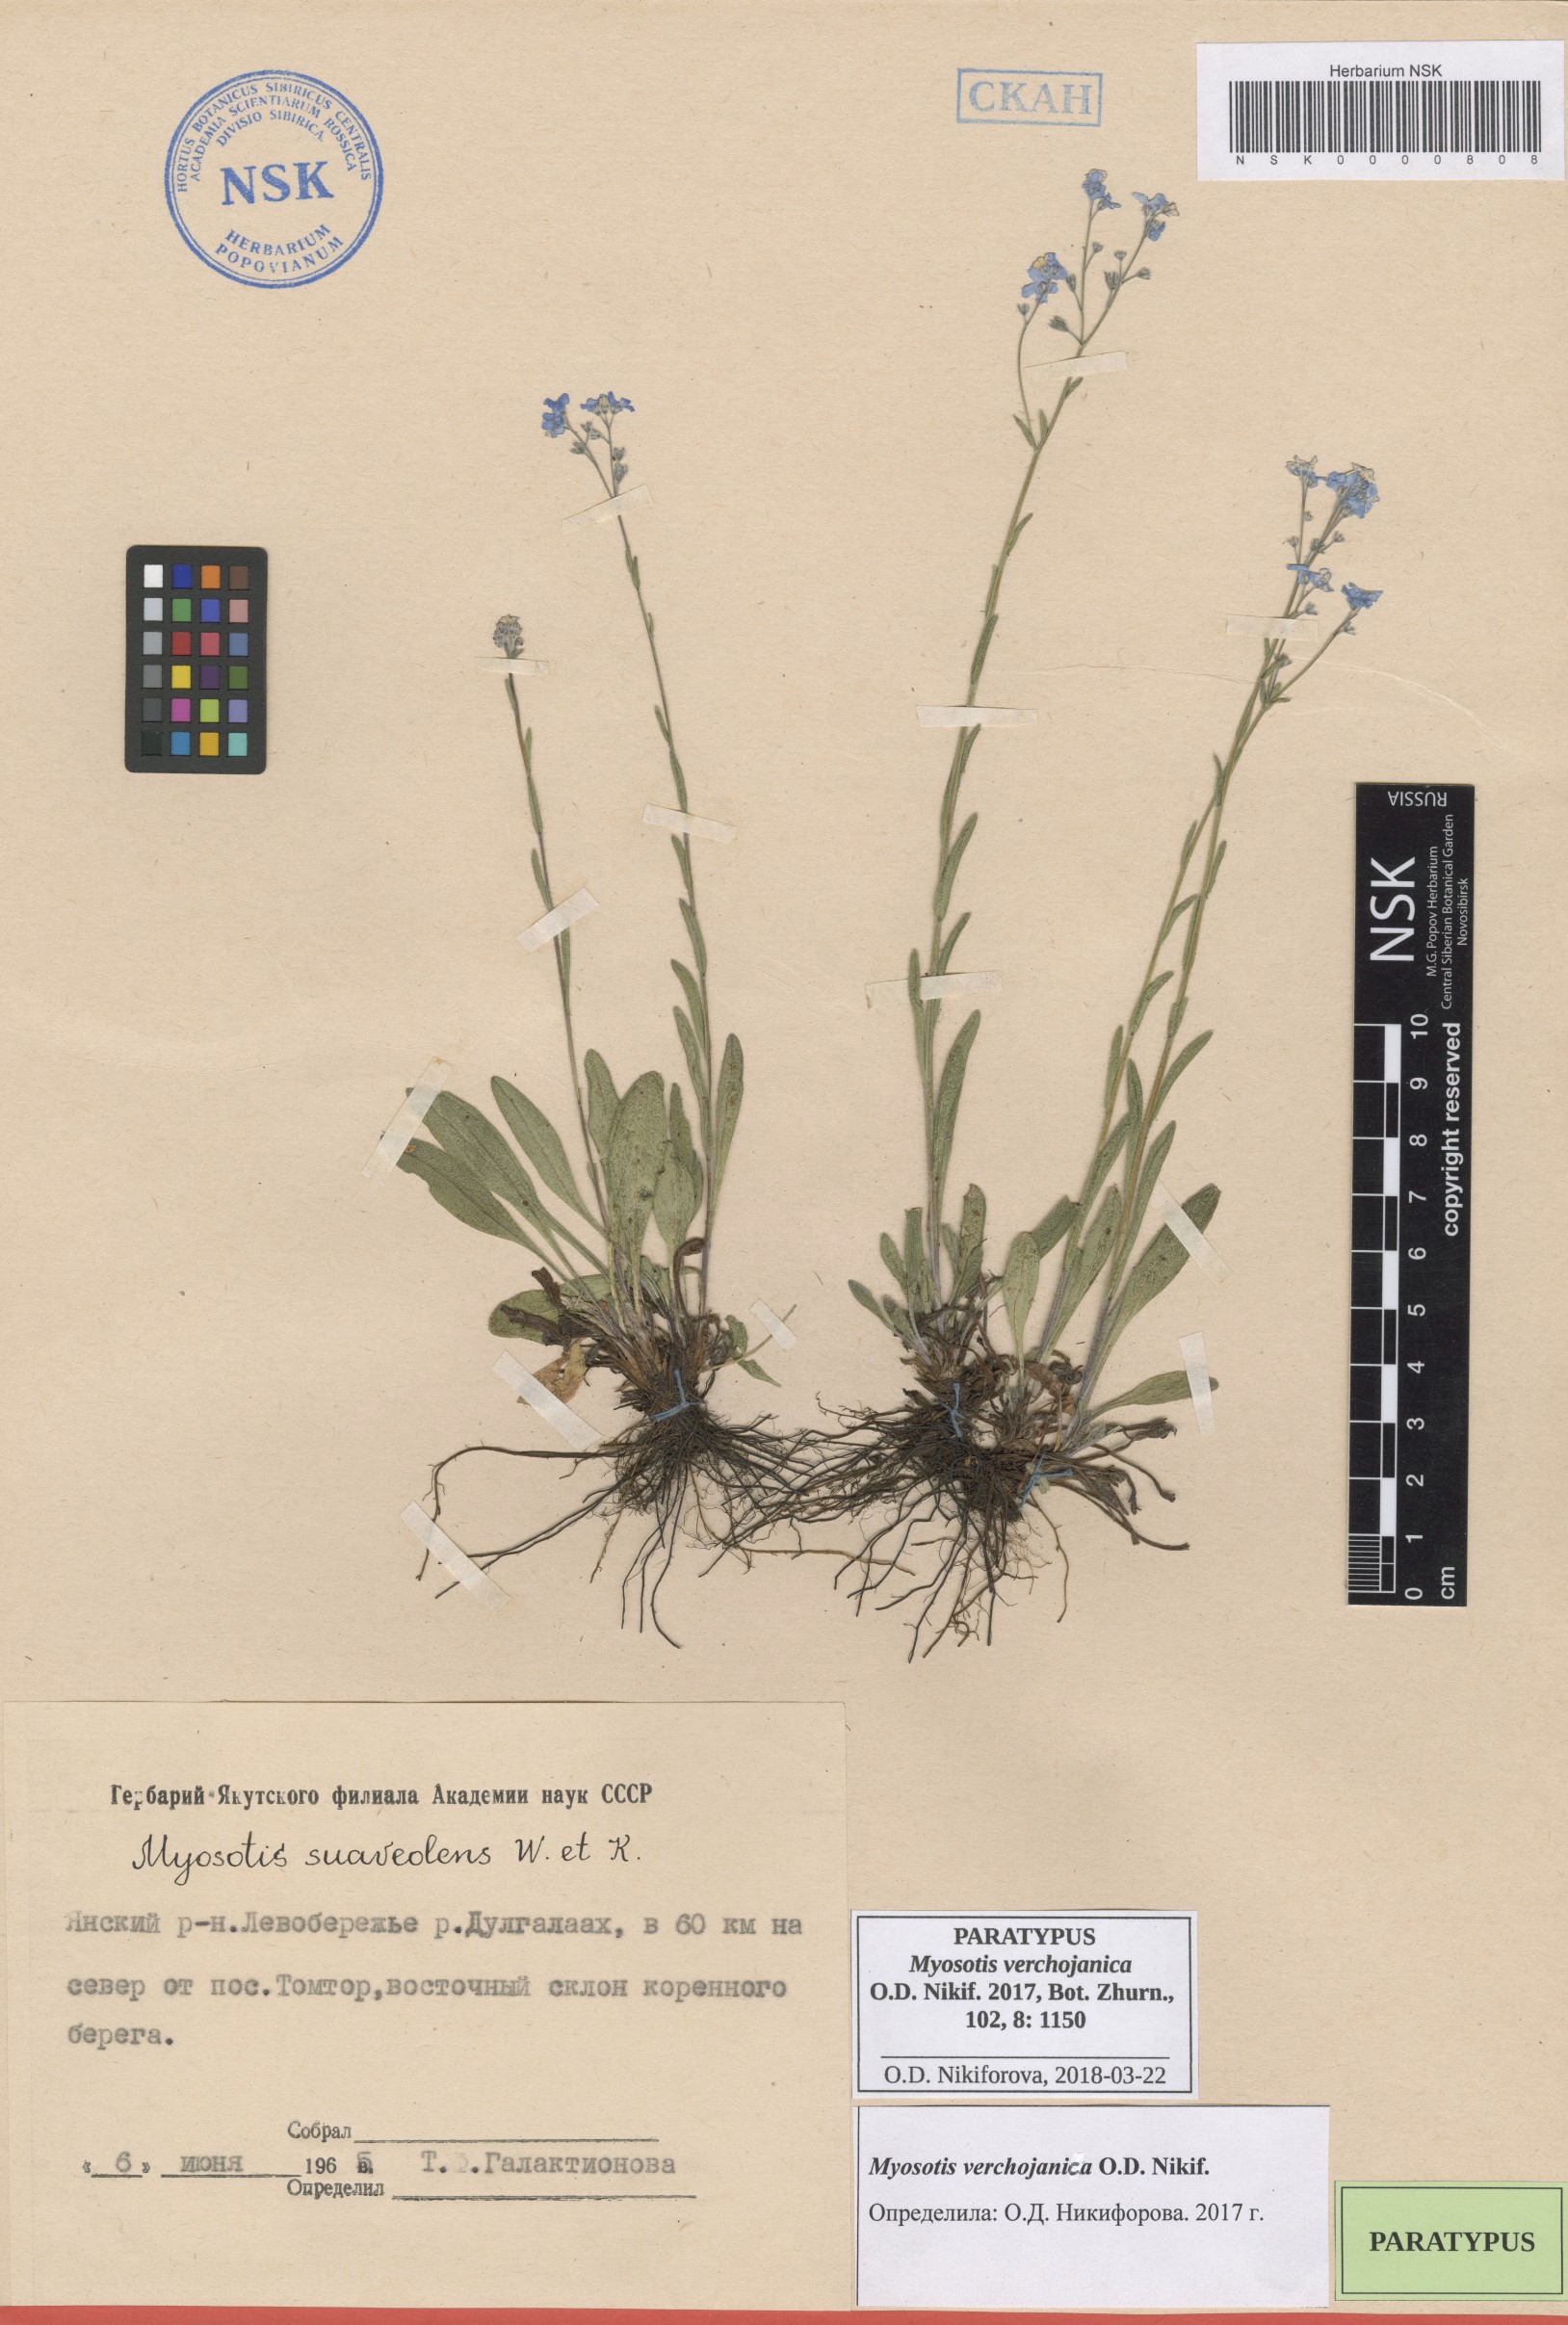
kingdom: Plantae
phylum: Tracheophyta
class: Magnoliopsida
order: Boraginales
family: Boraginaceae
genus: Myosotis
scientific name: Myosotis
